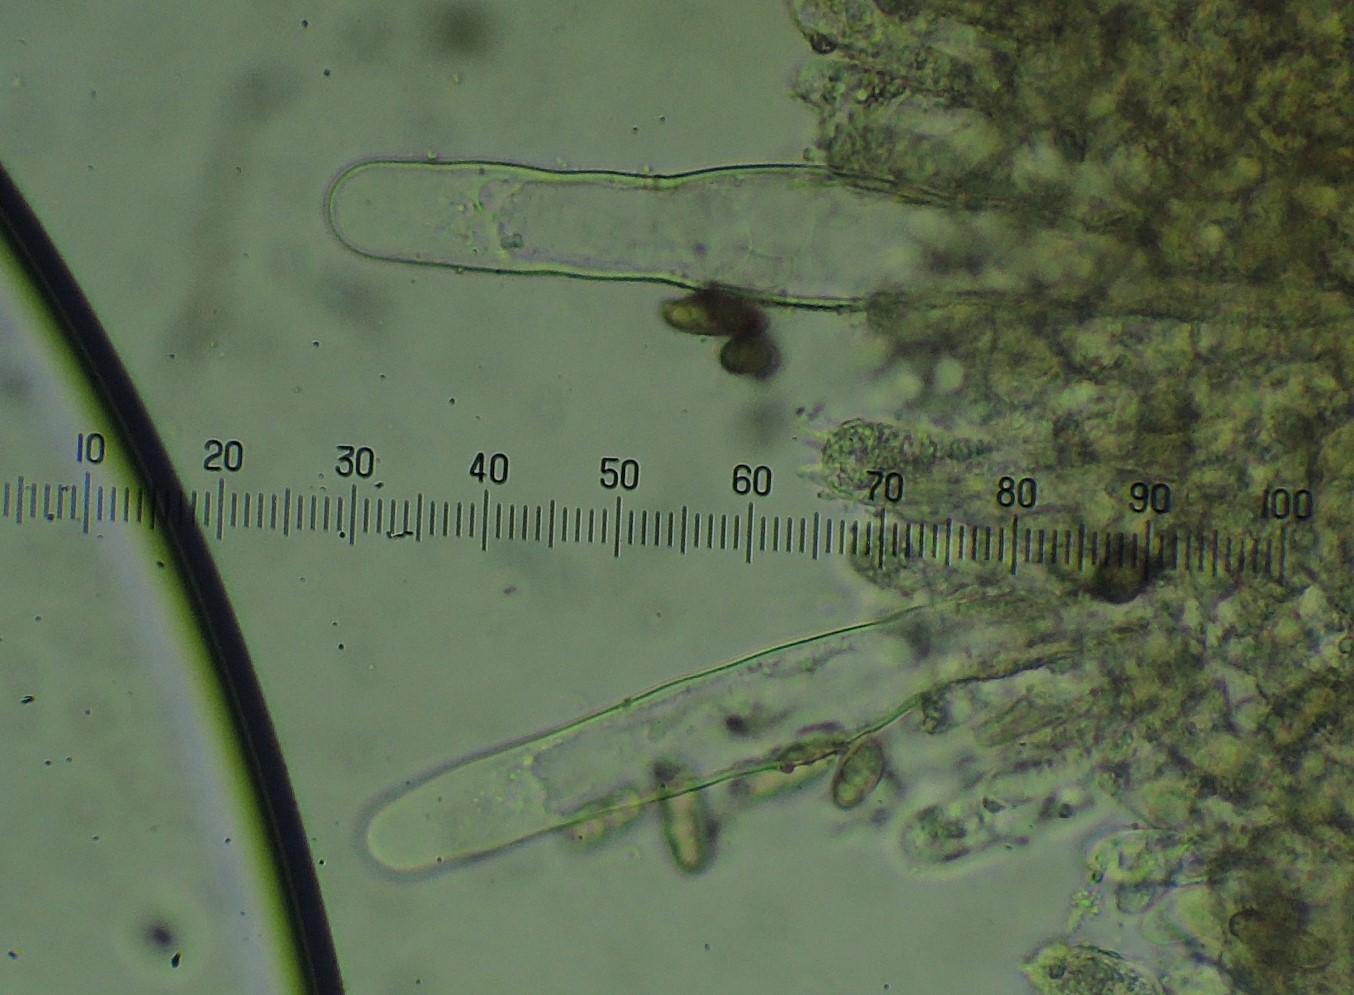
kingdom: Fungi
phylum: Basidiomycota
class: Agaricomycetes
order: Boletales
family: Gomphidiaceae
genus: Chroogomphus
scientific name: Chroogomphus rutilus
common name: brunrød slimslør
